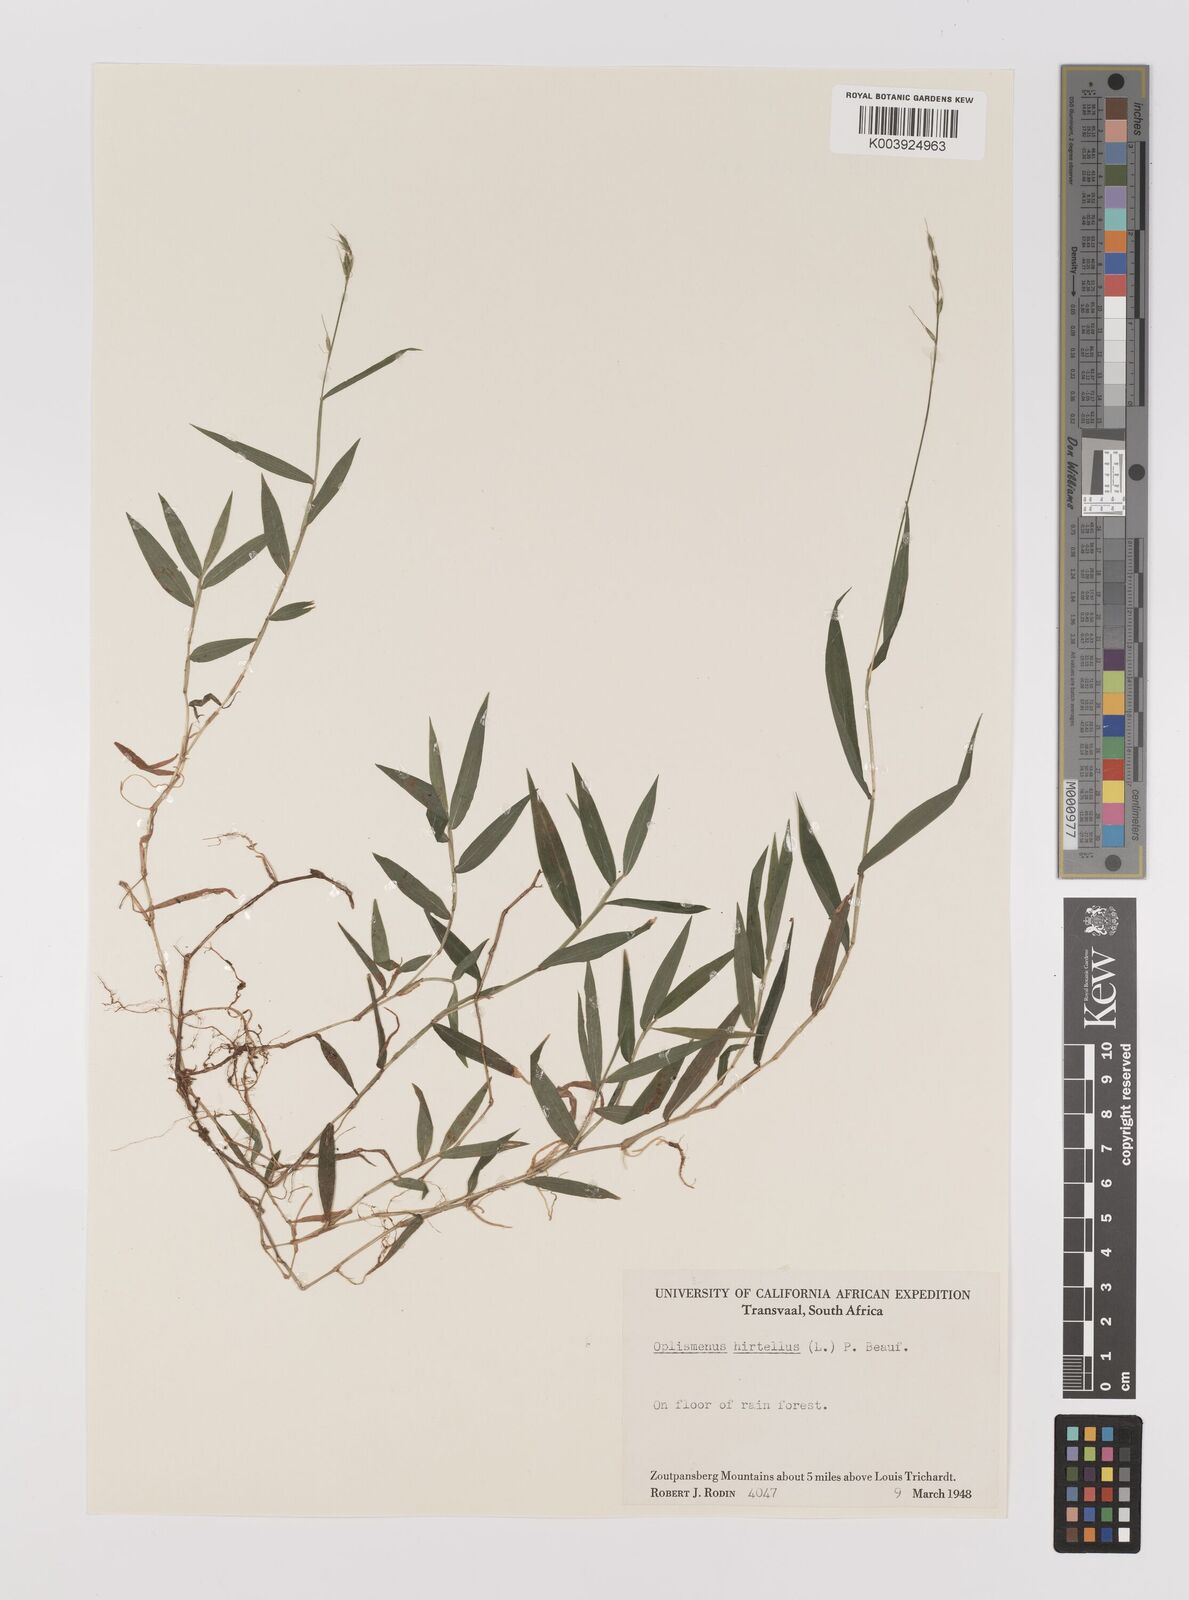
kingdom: Plantae
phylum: Tracheophyta
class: Liliopsida
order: Poales
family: Poaceae
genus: Oplismenus
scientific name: Oplismenus hirtellus
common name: Basketgrass
